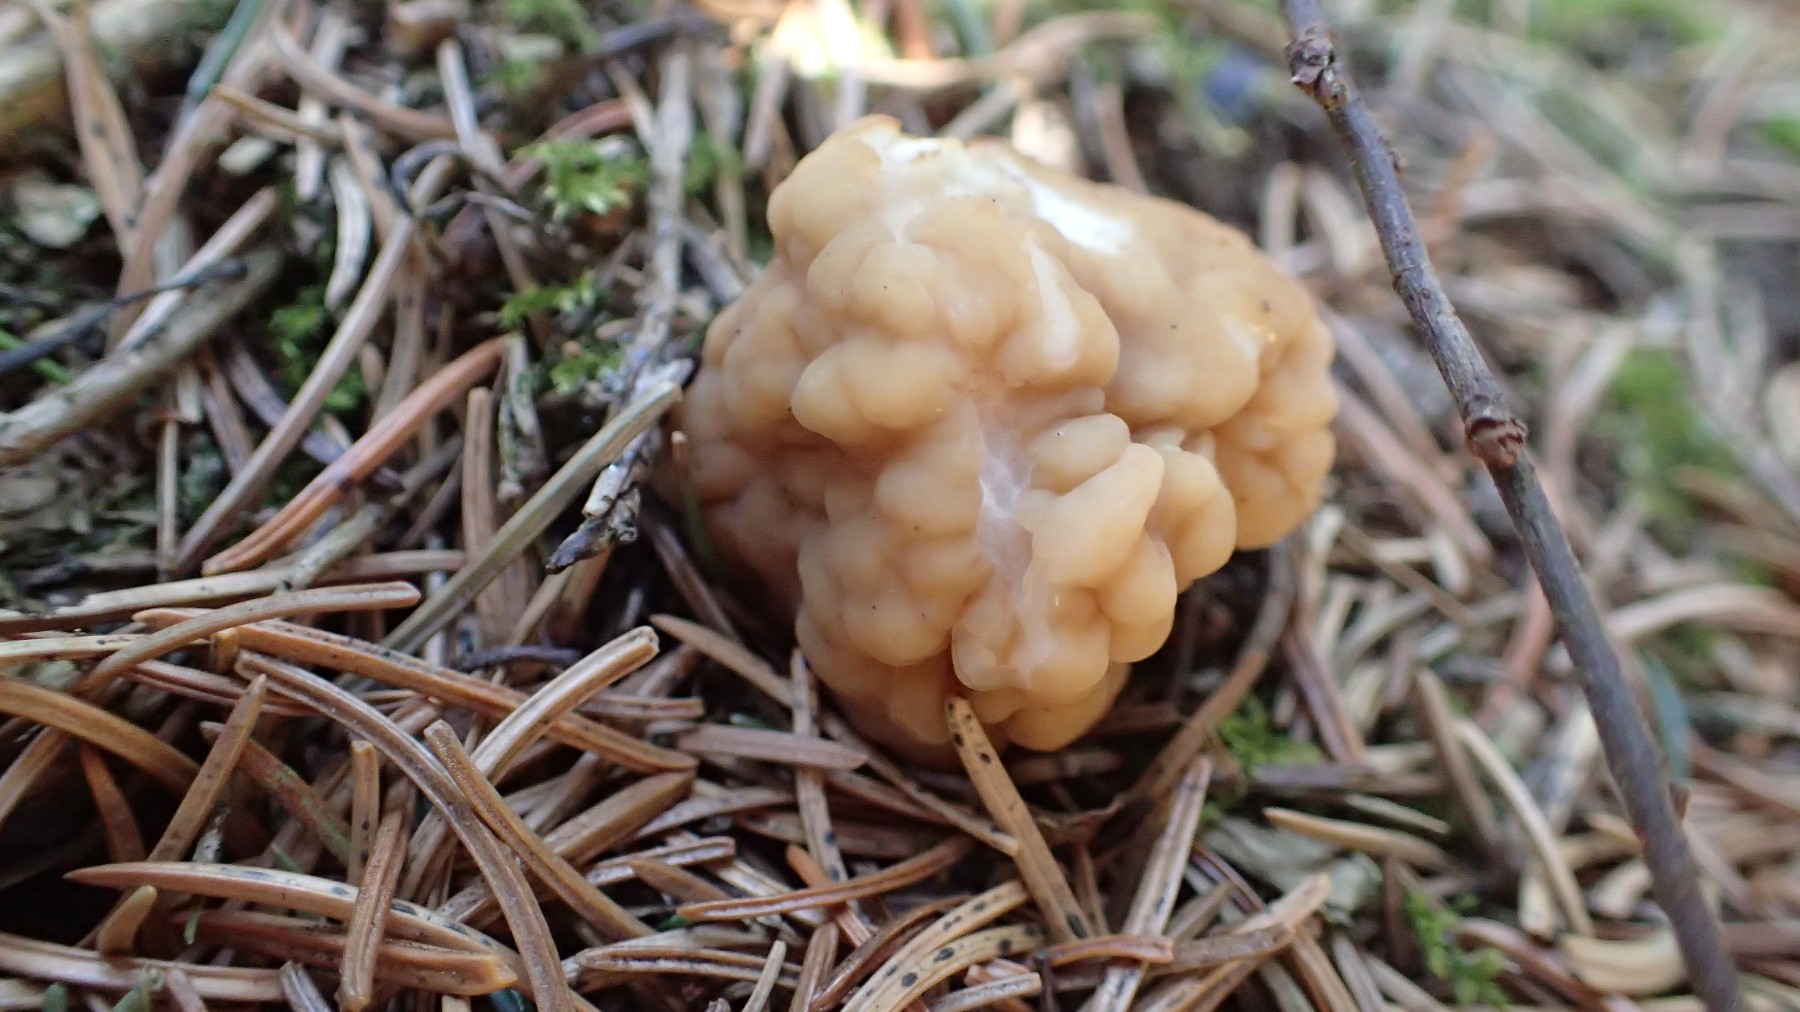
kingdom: Fungi
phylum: Ascomycota
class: Pezizomycetes
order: Pezizales
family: Discinaceae
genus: Gyromitra
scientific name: Gyromitra gigas
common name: kæmpe-stenmorkel
